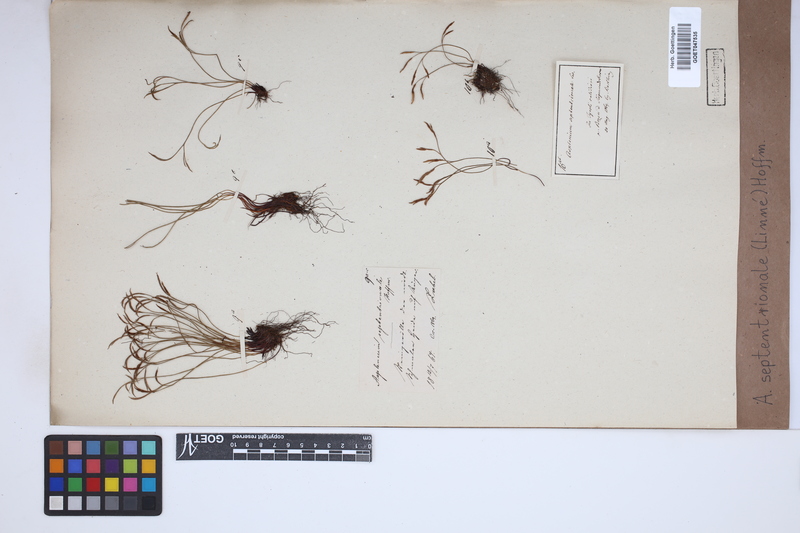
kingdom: Plantae
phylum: Tracheophyta
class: Polypodiopsida
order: Polypodiales
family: Aspleniaceae
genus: Asplenium
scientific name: Asplenium septentrionale
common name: Forked spleenwort
